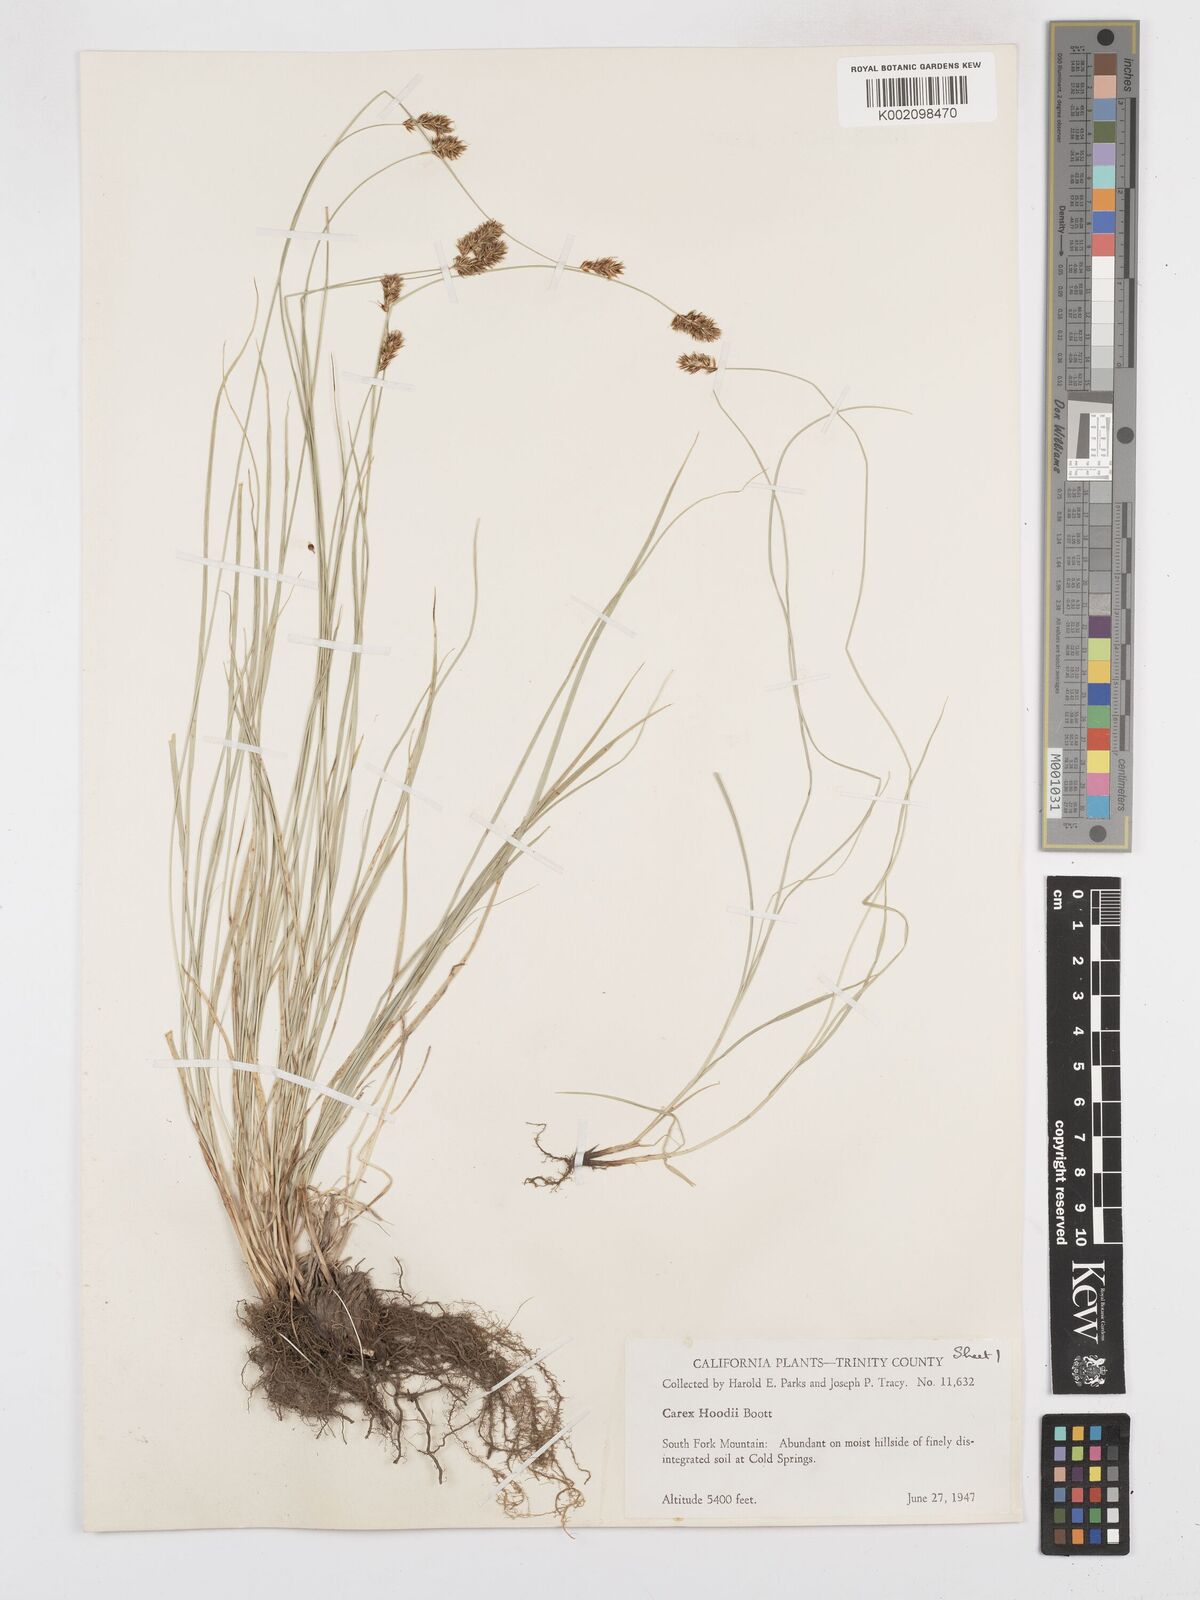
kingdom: Plantae
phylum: Tracheophyta
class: Liliopsida
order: Poales
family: Cyperaceae
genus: Carex
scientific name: Carex hoodii
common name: Hood's sedge
